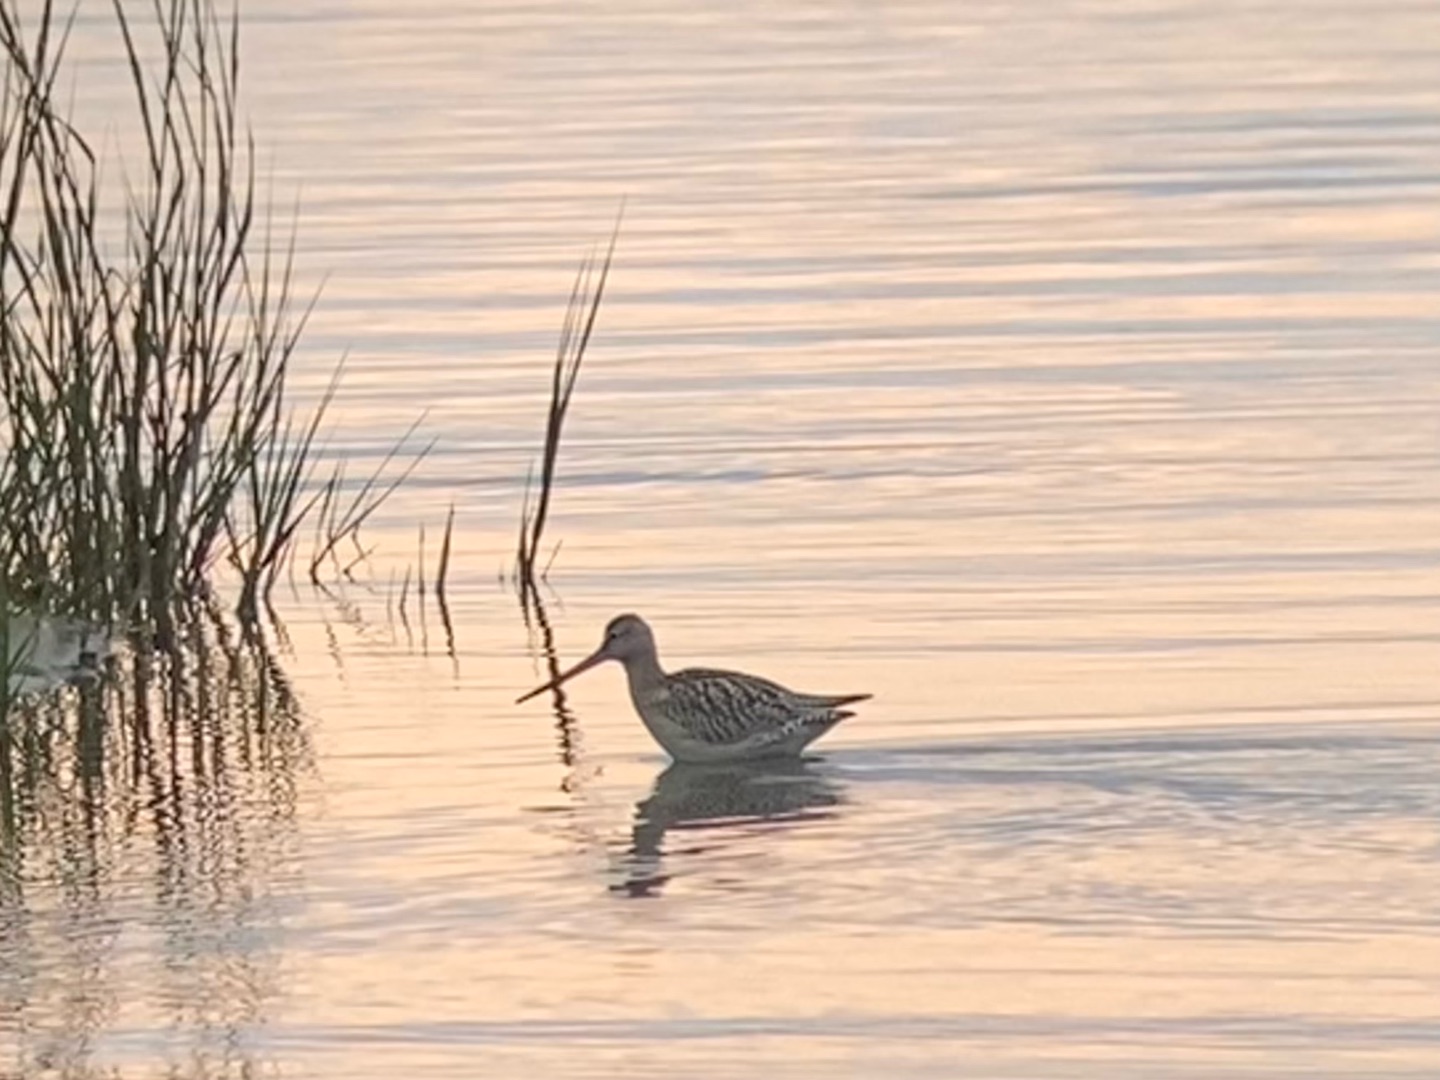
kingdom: Animalia
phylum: Chordata
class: Aves
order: Charadriiformes
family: Scolopacidae
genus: Limosa
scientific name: Limosa lapponica
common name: Lille kobbersneppe
